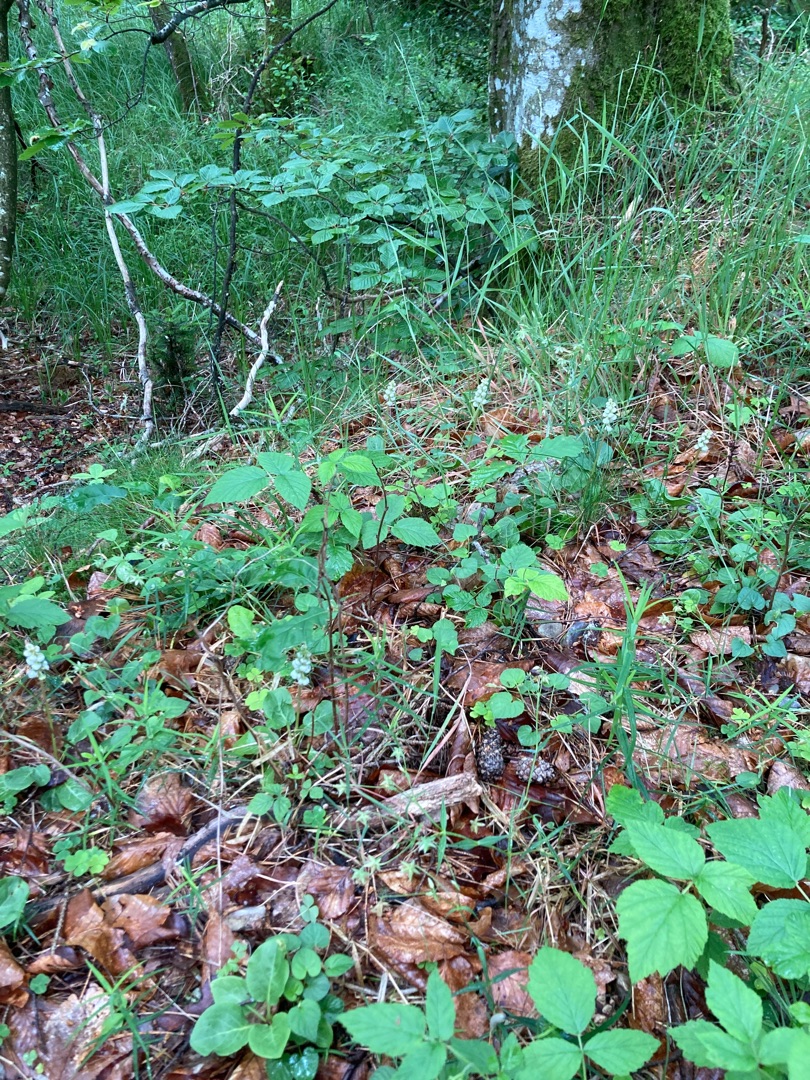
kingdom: Plantae
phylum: Tracheophyta
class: Magnoliopsida
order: Ericales
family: Ericaceae
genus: Pyrola
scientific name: Pyrola minor
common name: Liden vintergrøn
